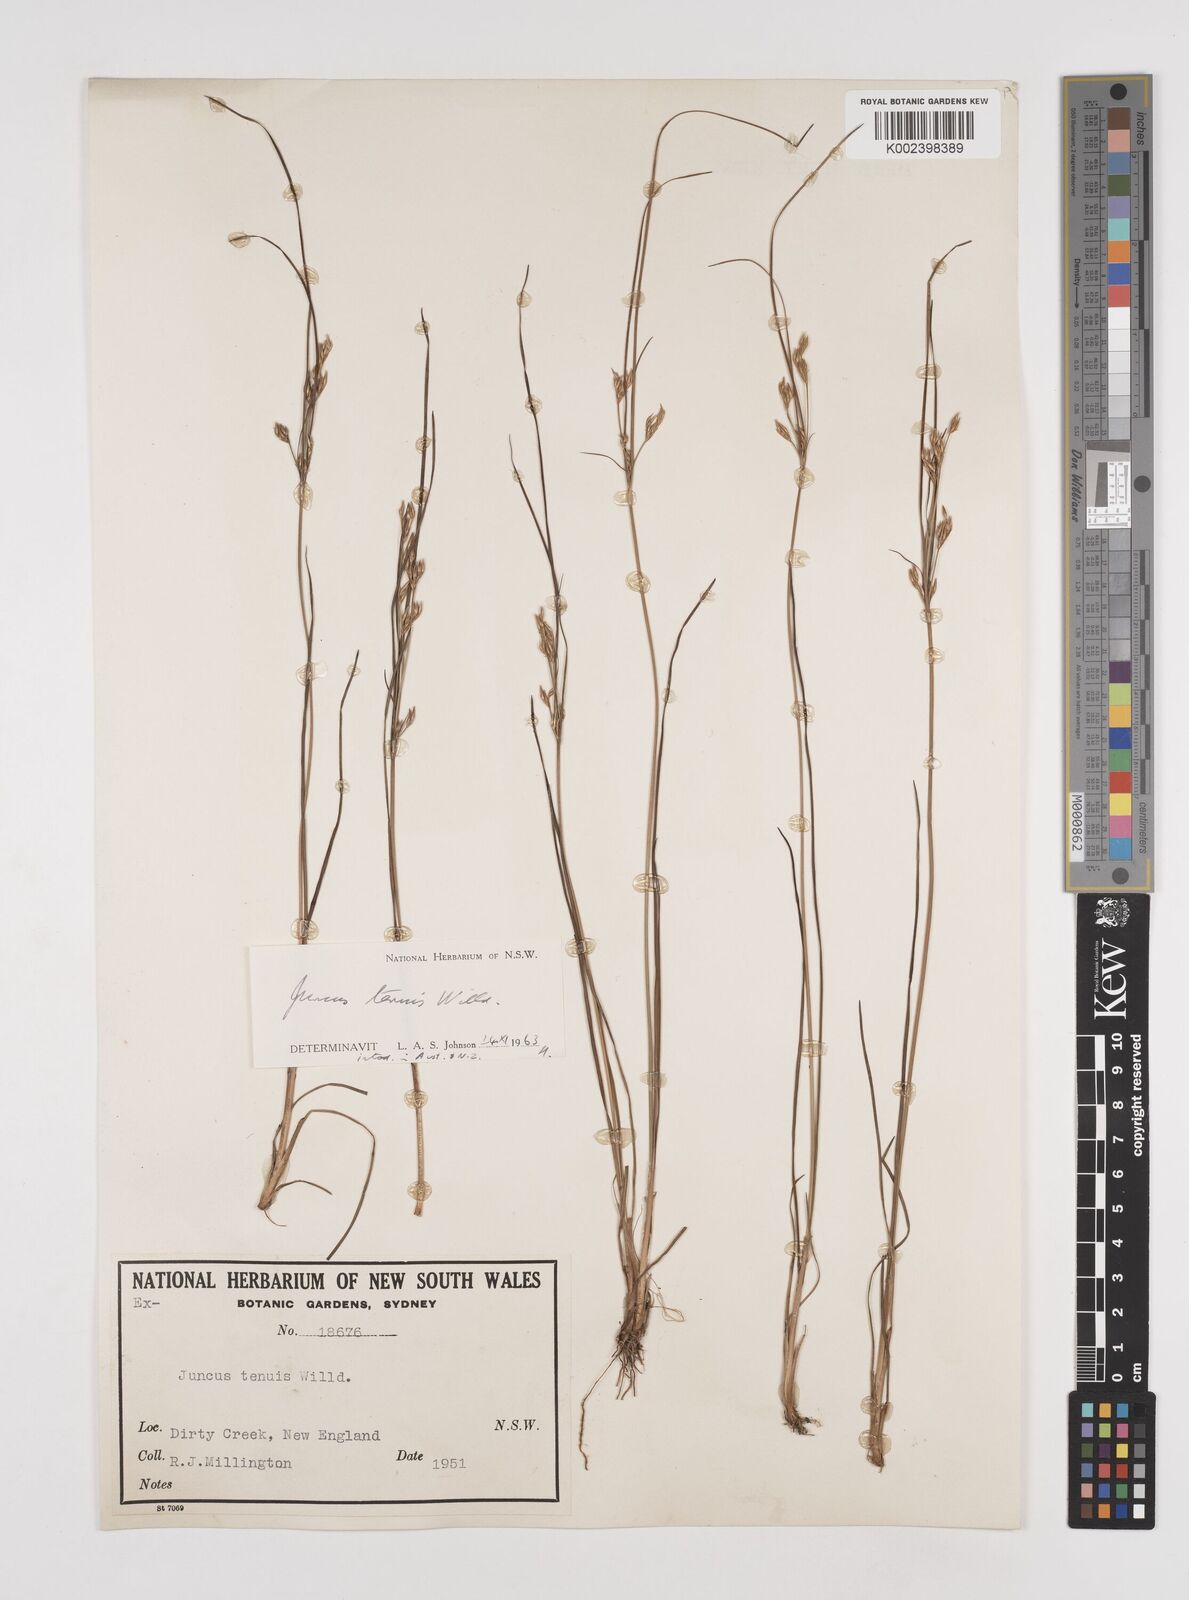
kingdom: Plantae
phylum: Tracheophyta
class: Liliopsida
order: Poales
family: Juncaceae
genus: Juncus
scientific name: Juncus tenuis
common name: Slender rush
